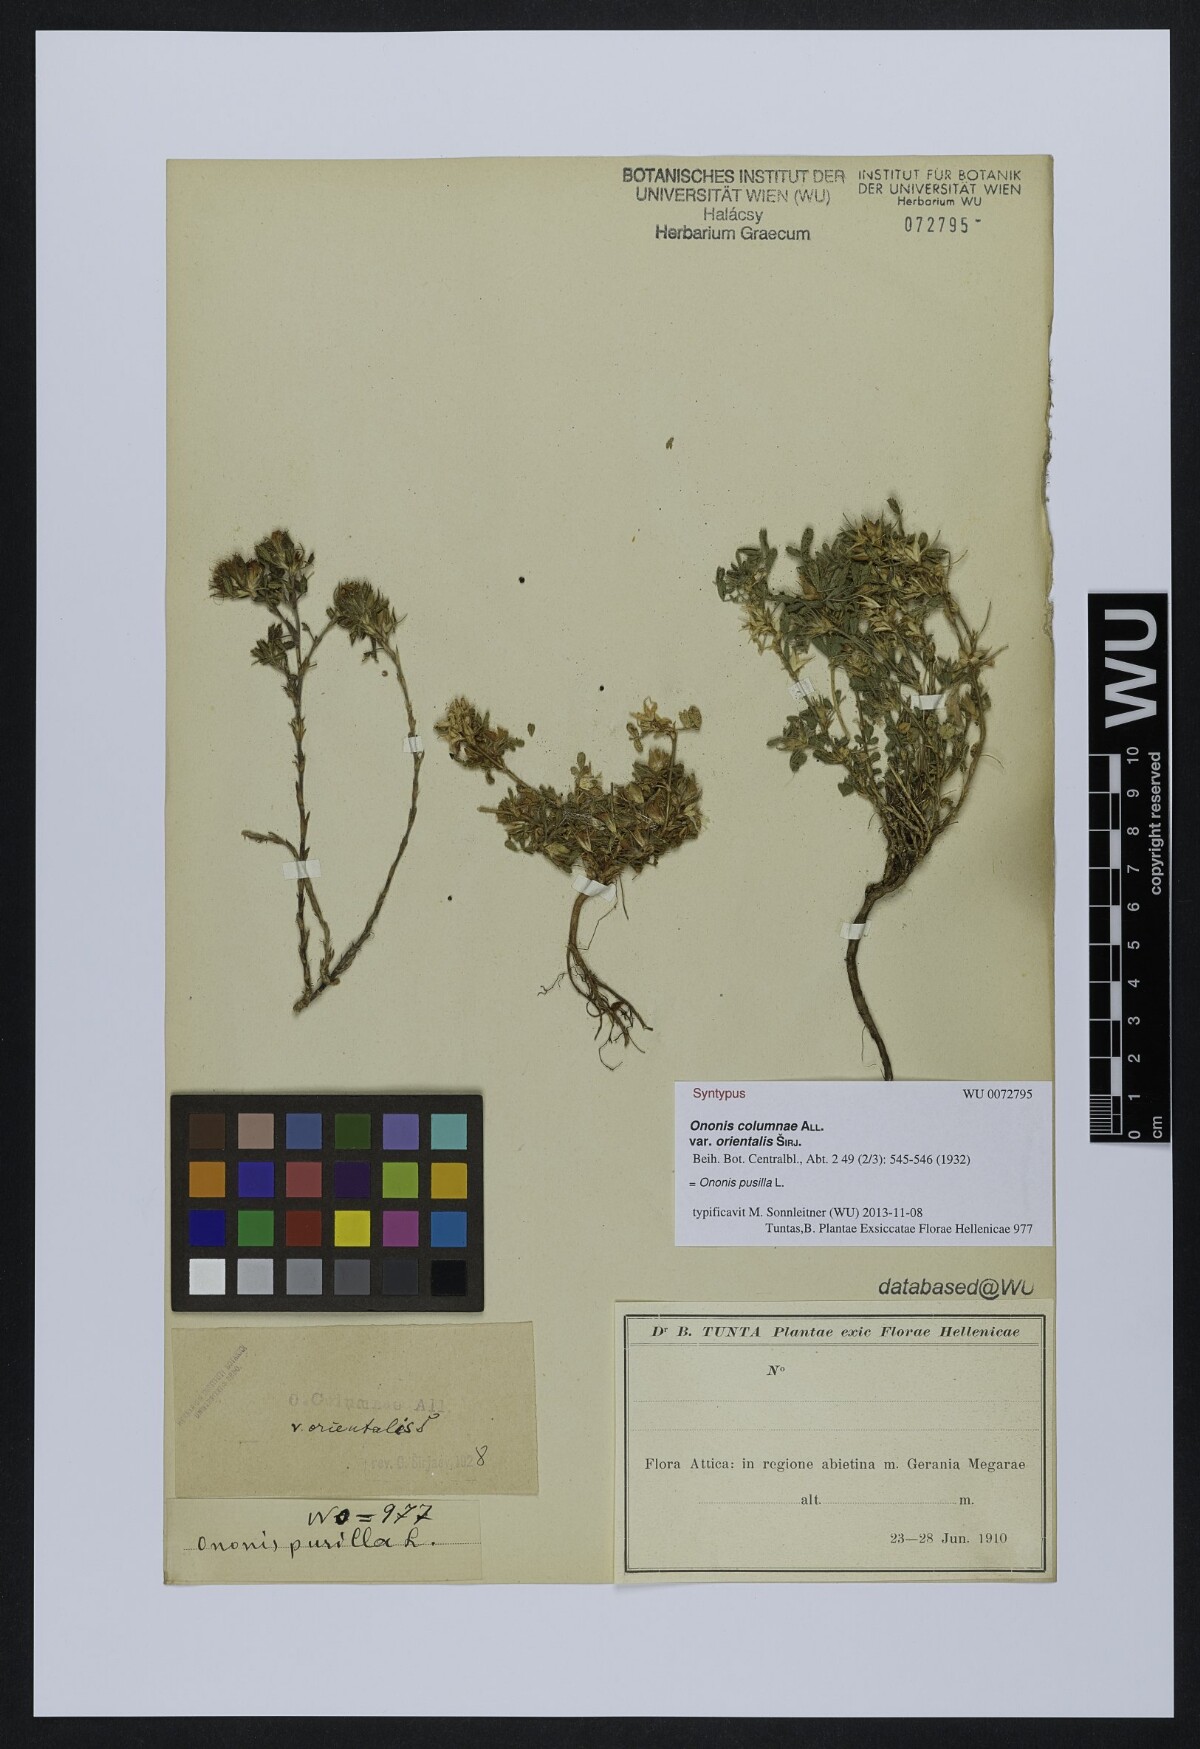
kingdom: Plantae
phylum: Tracheophyta
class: Magnoliopsida
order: Fabales
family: Fabaceae
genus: Ononis
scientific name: Ononis pusilla
